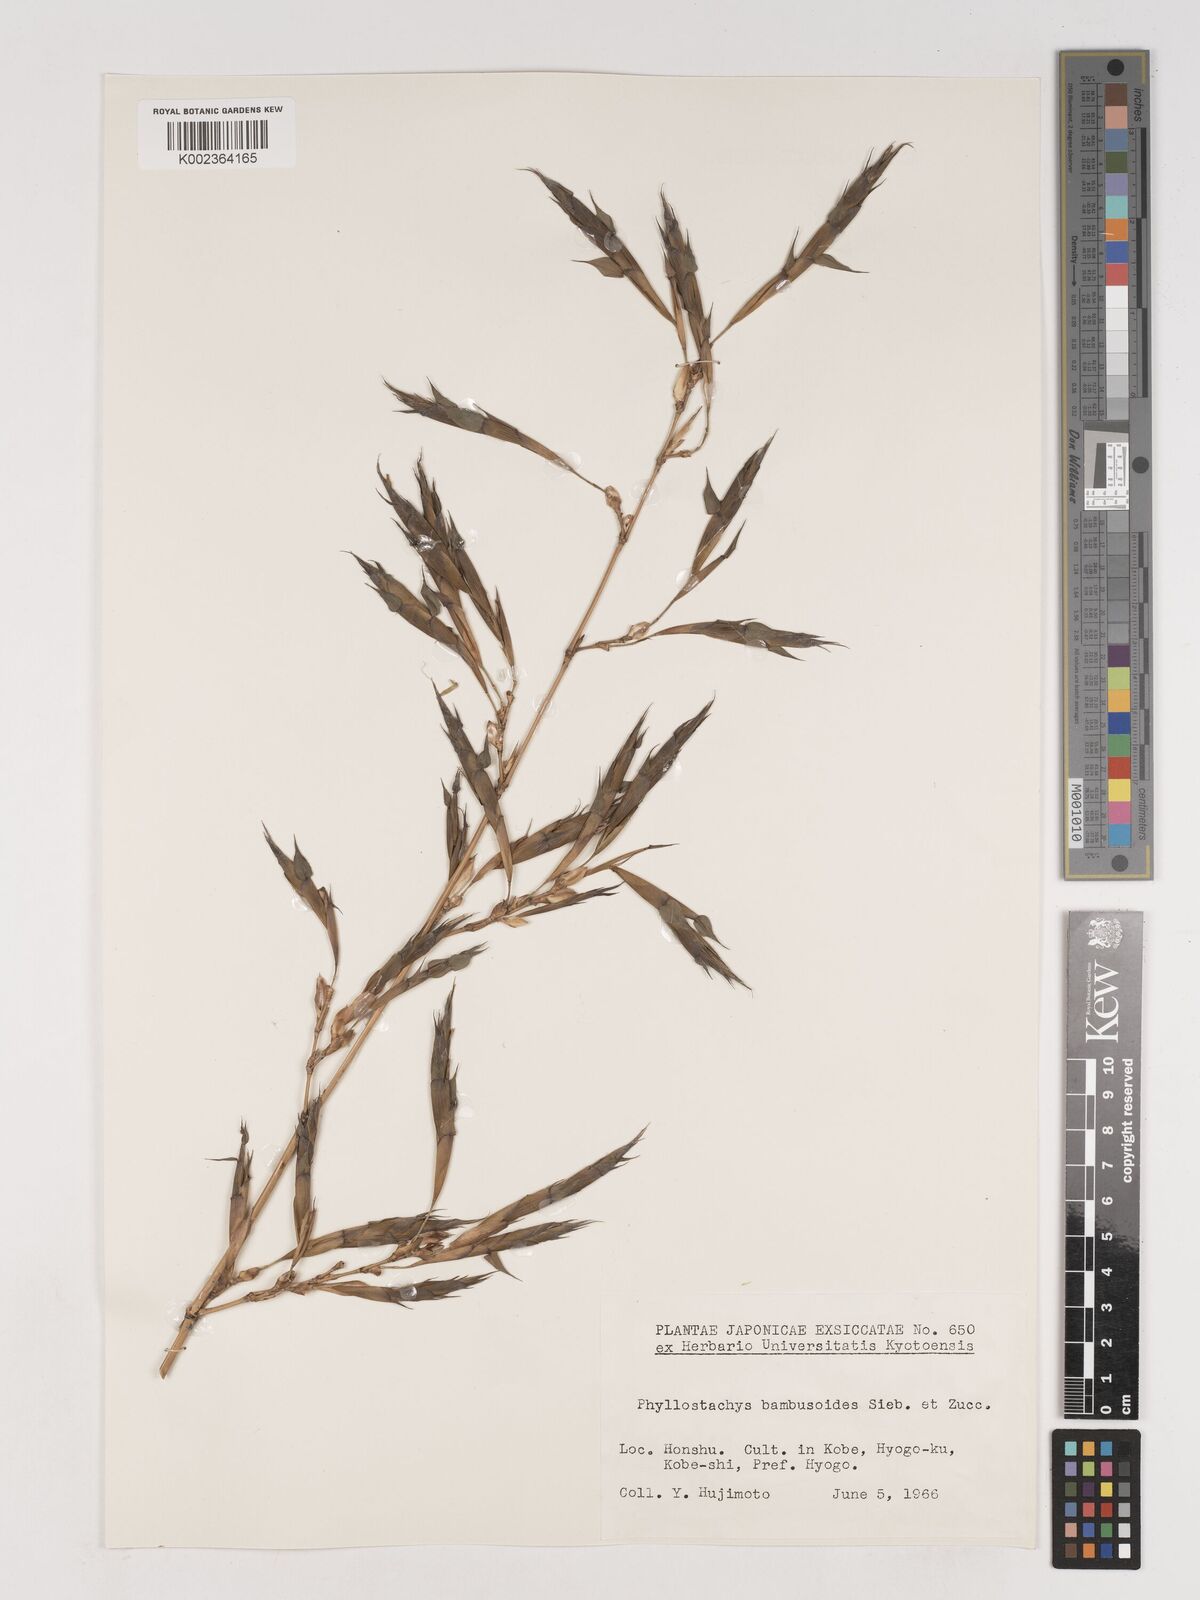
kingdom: Plantae
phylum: Tracheophyta
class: Liliopsida
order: Poales
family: Poaceae
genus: Phyllostachys
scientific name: Phyllostachys reticulata
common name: Bamboo
